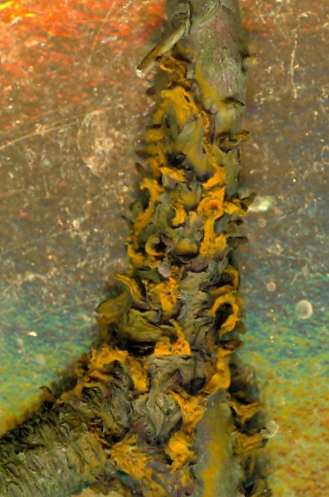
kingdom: Fungi
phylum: Basidiomycota
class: Pucciniomycetes
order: Pucciniales
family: Gymnosporangiaceae
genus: Gymnosporangium
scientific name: Gymnosporangium
